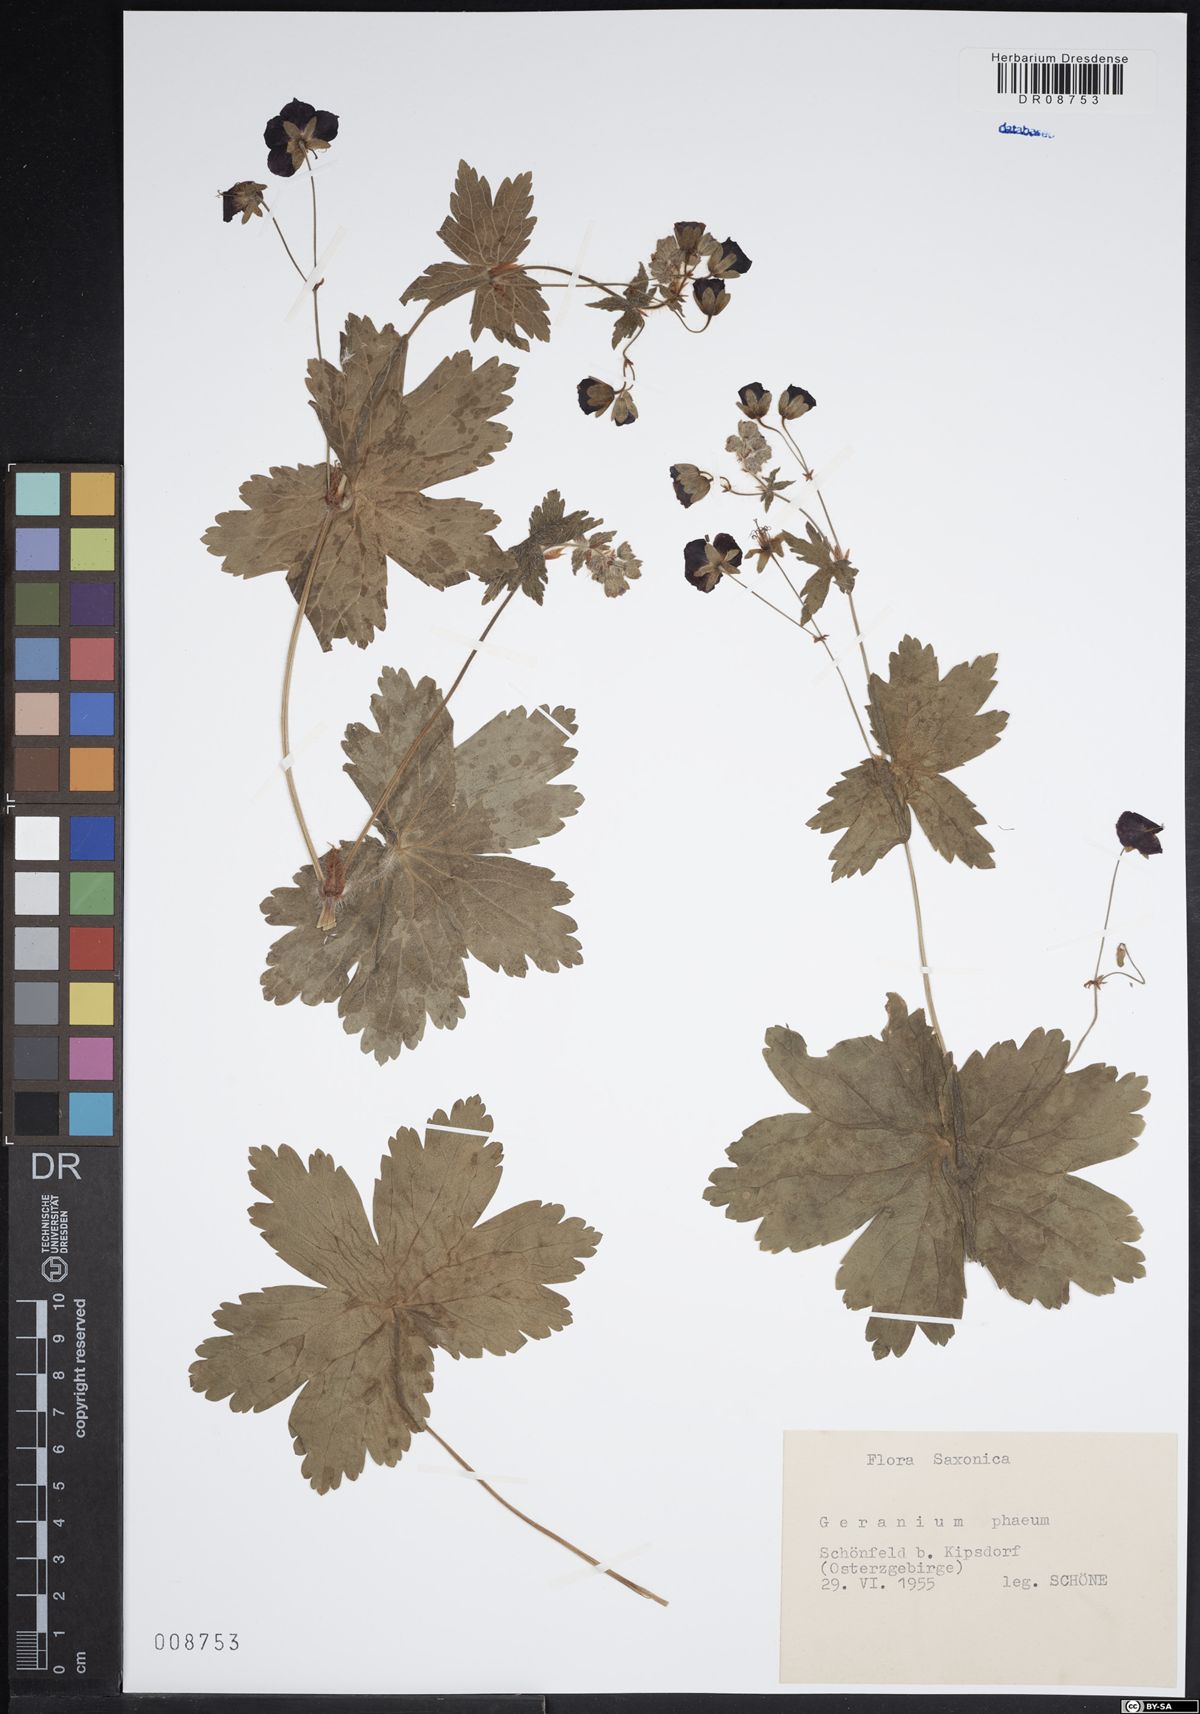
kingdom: Plantae
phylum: Tracheophyta
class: Magnoliopsida
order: Geraniales
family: Geraniaceae
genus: Geranium
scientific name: Geranium phaeum
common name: Dusky crane's-bill
